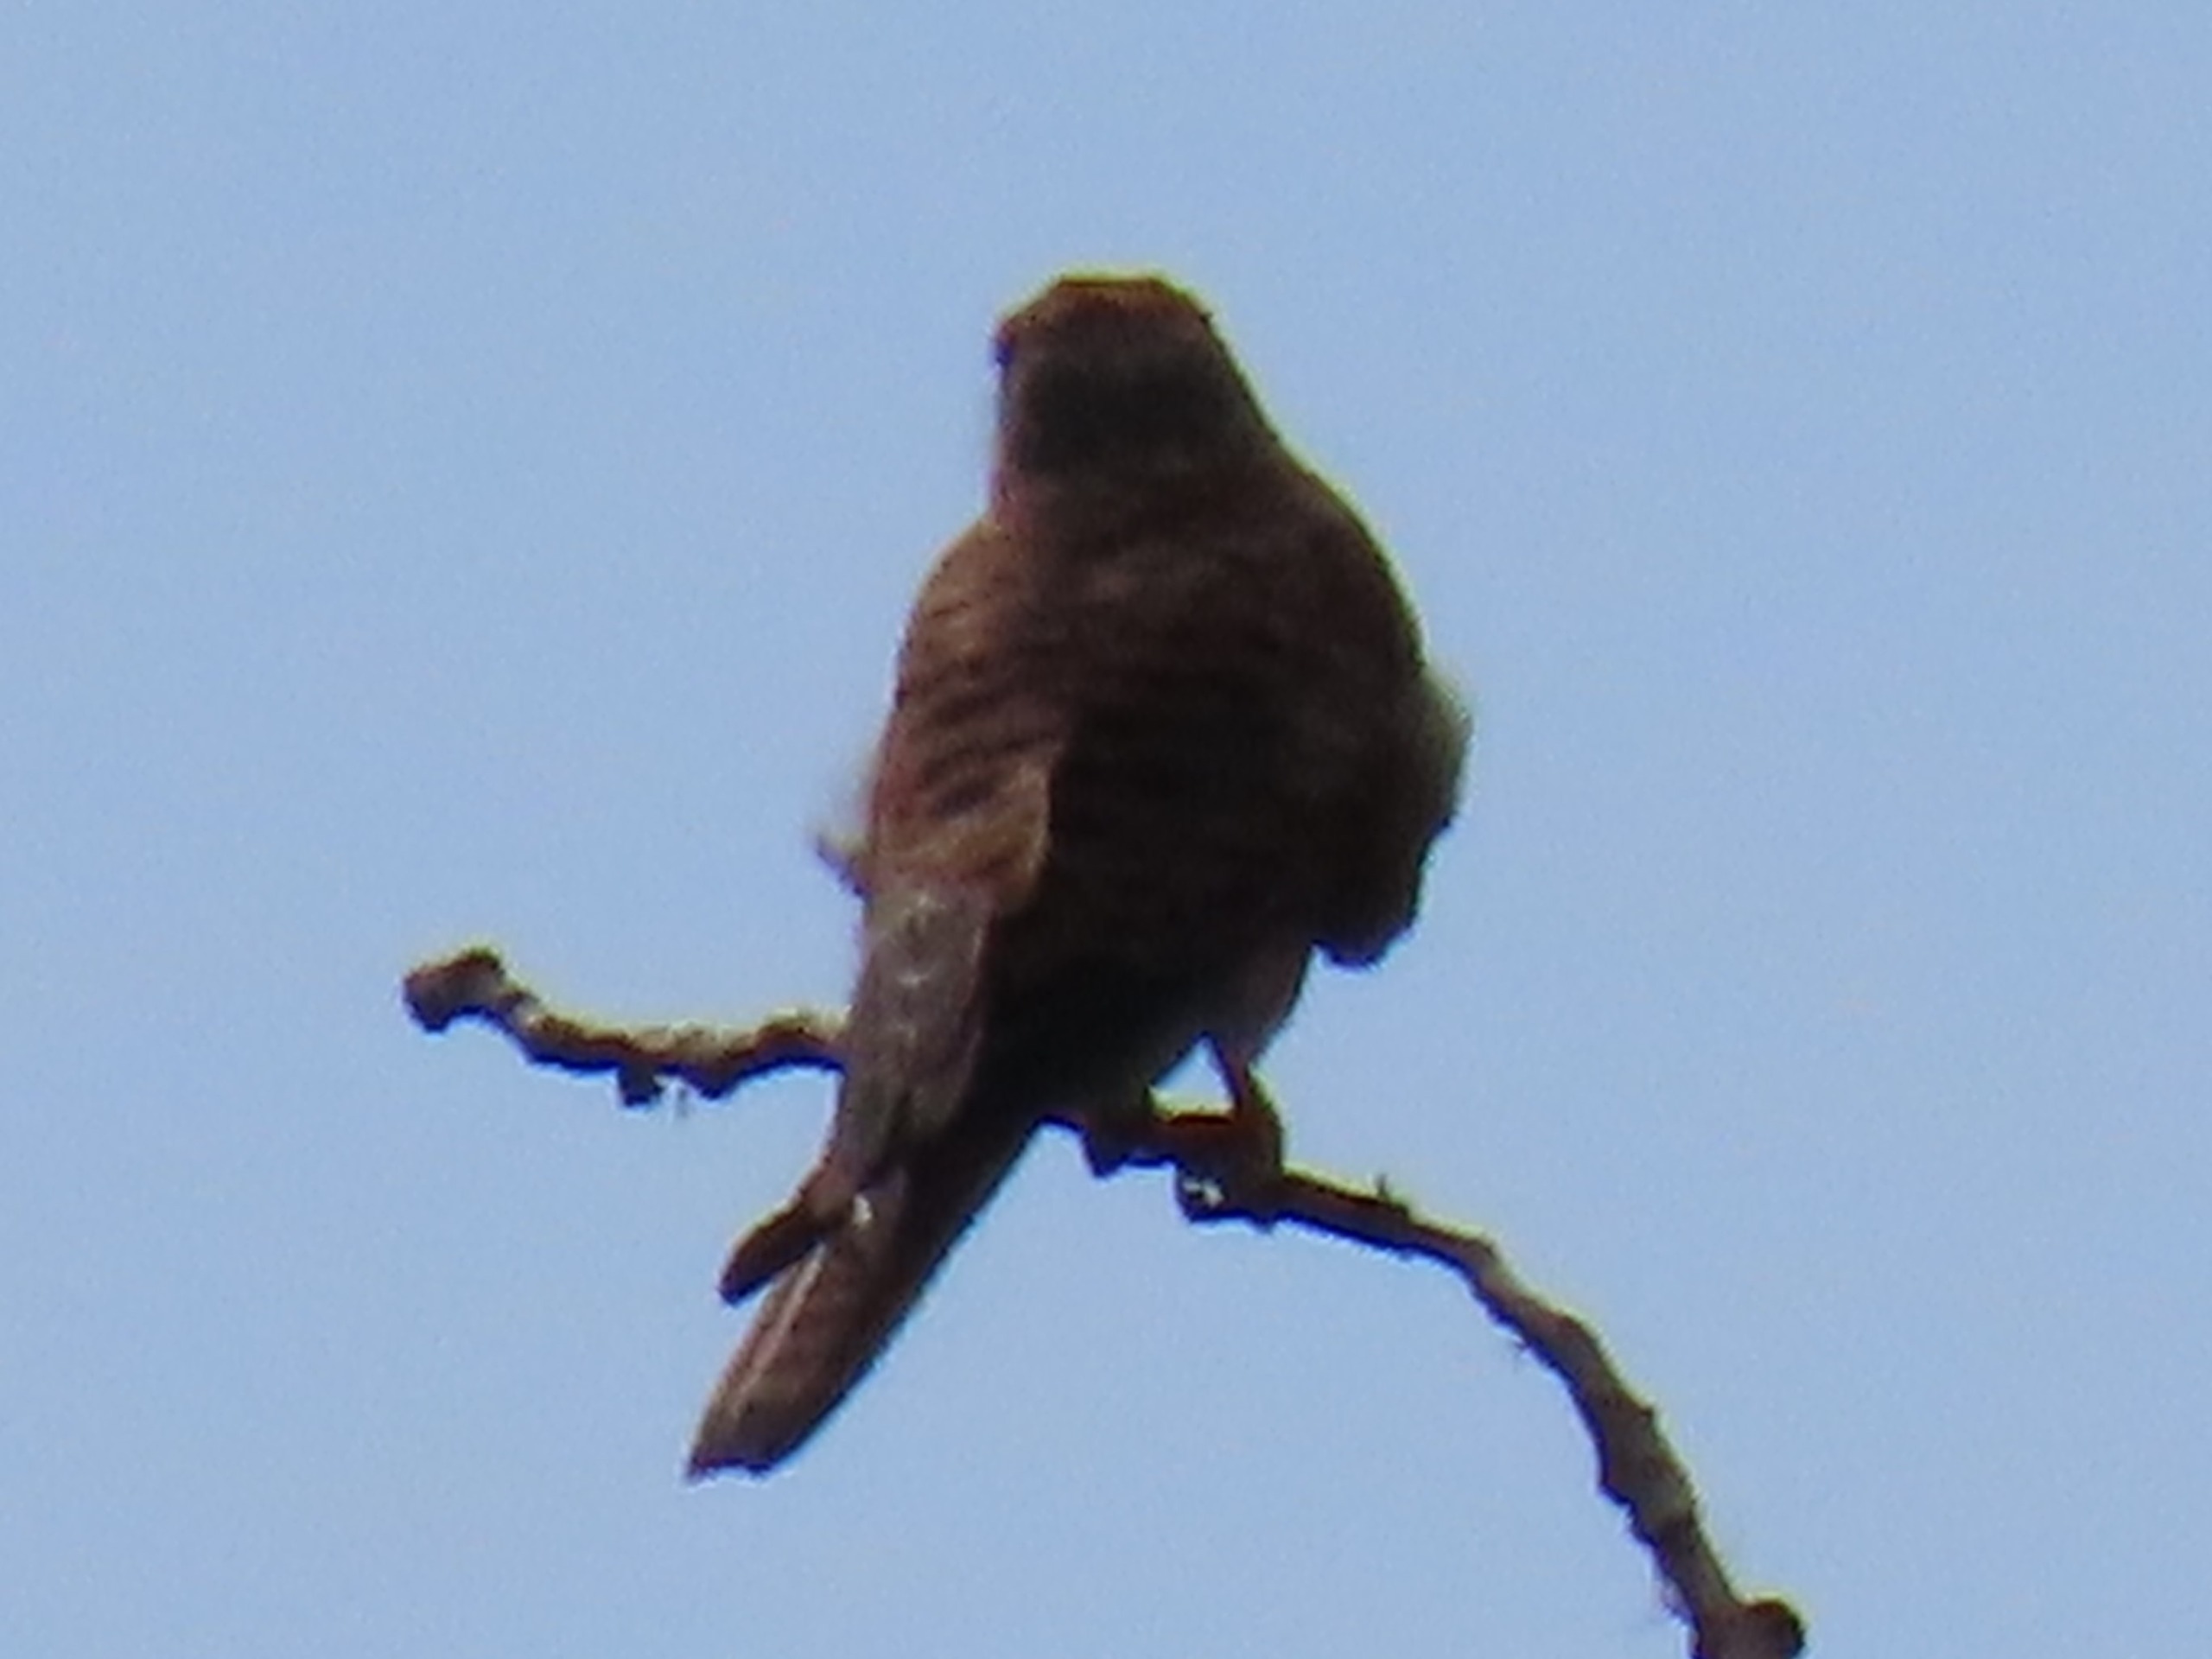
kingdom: Animalia
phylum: Chordata
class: Aves
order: Falconiformes
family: Falconidae
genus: Falco
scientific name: Falco tinnunculus
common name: Tårnfalk
